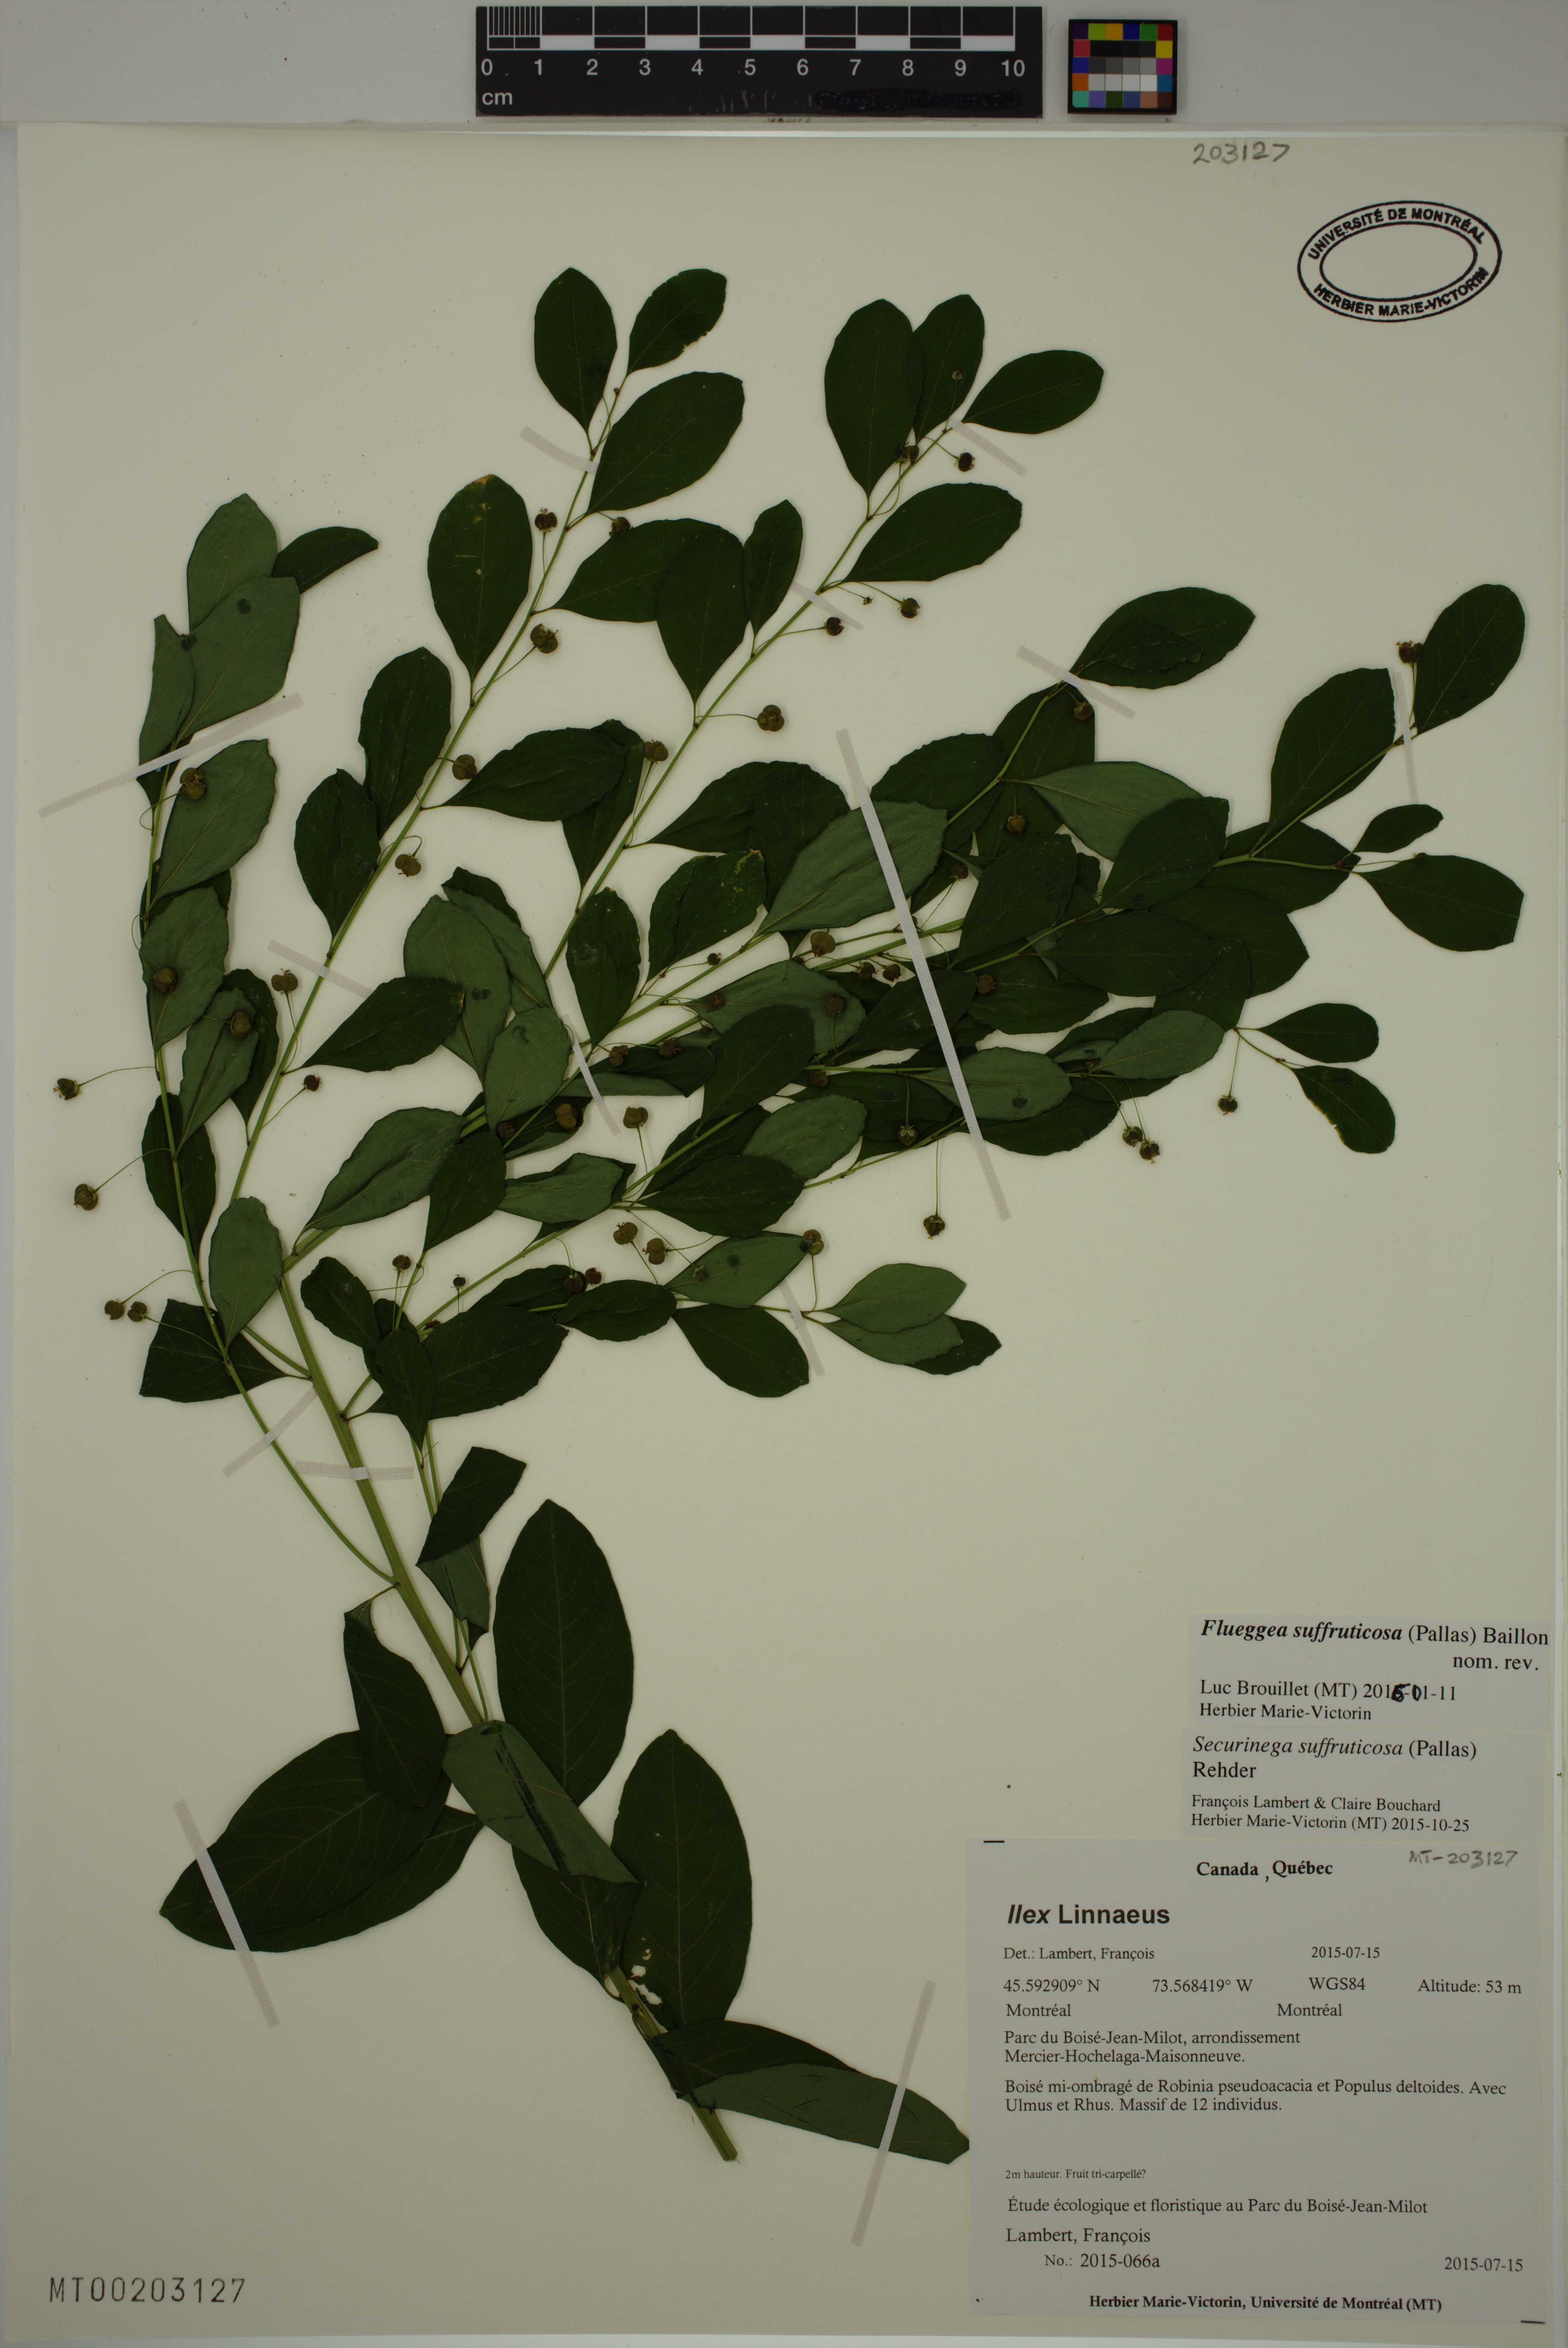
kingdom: Plantae
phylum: Tracheophyta
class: Magnoliopsida
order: Malpighiales
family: Phyllanthaceae
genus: Flueggea
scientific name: Flueggea suffruticosa
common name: Arching bushweed
